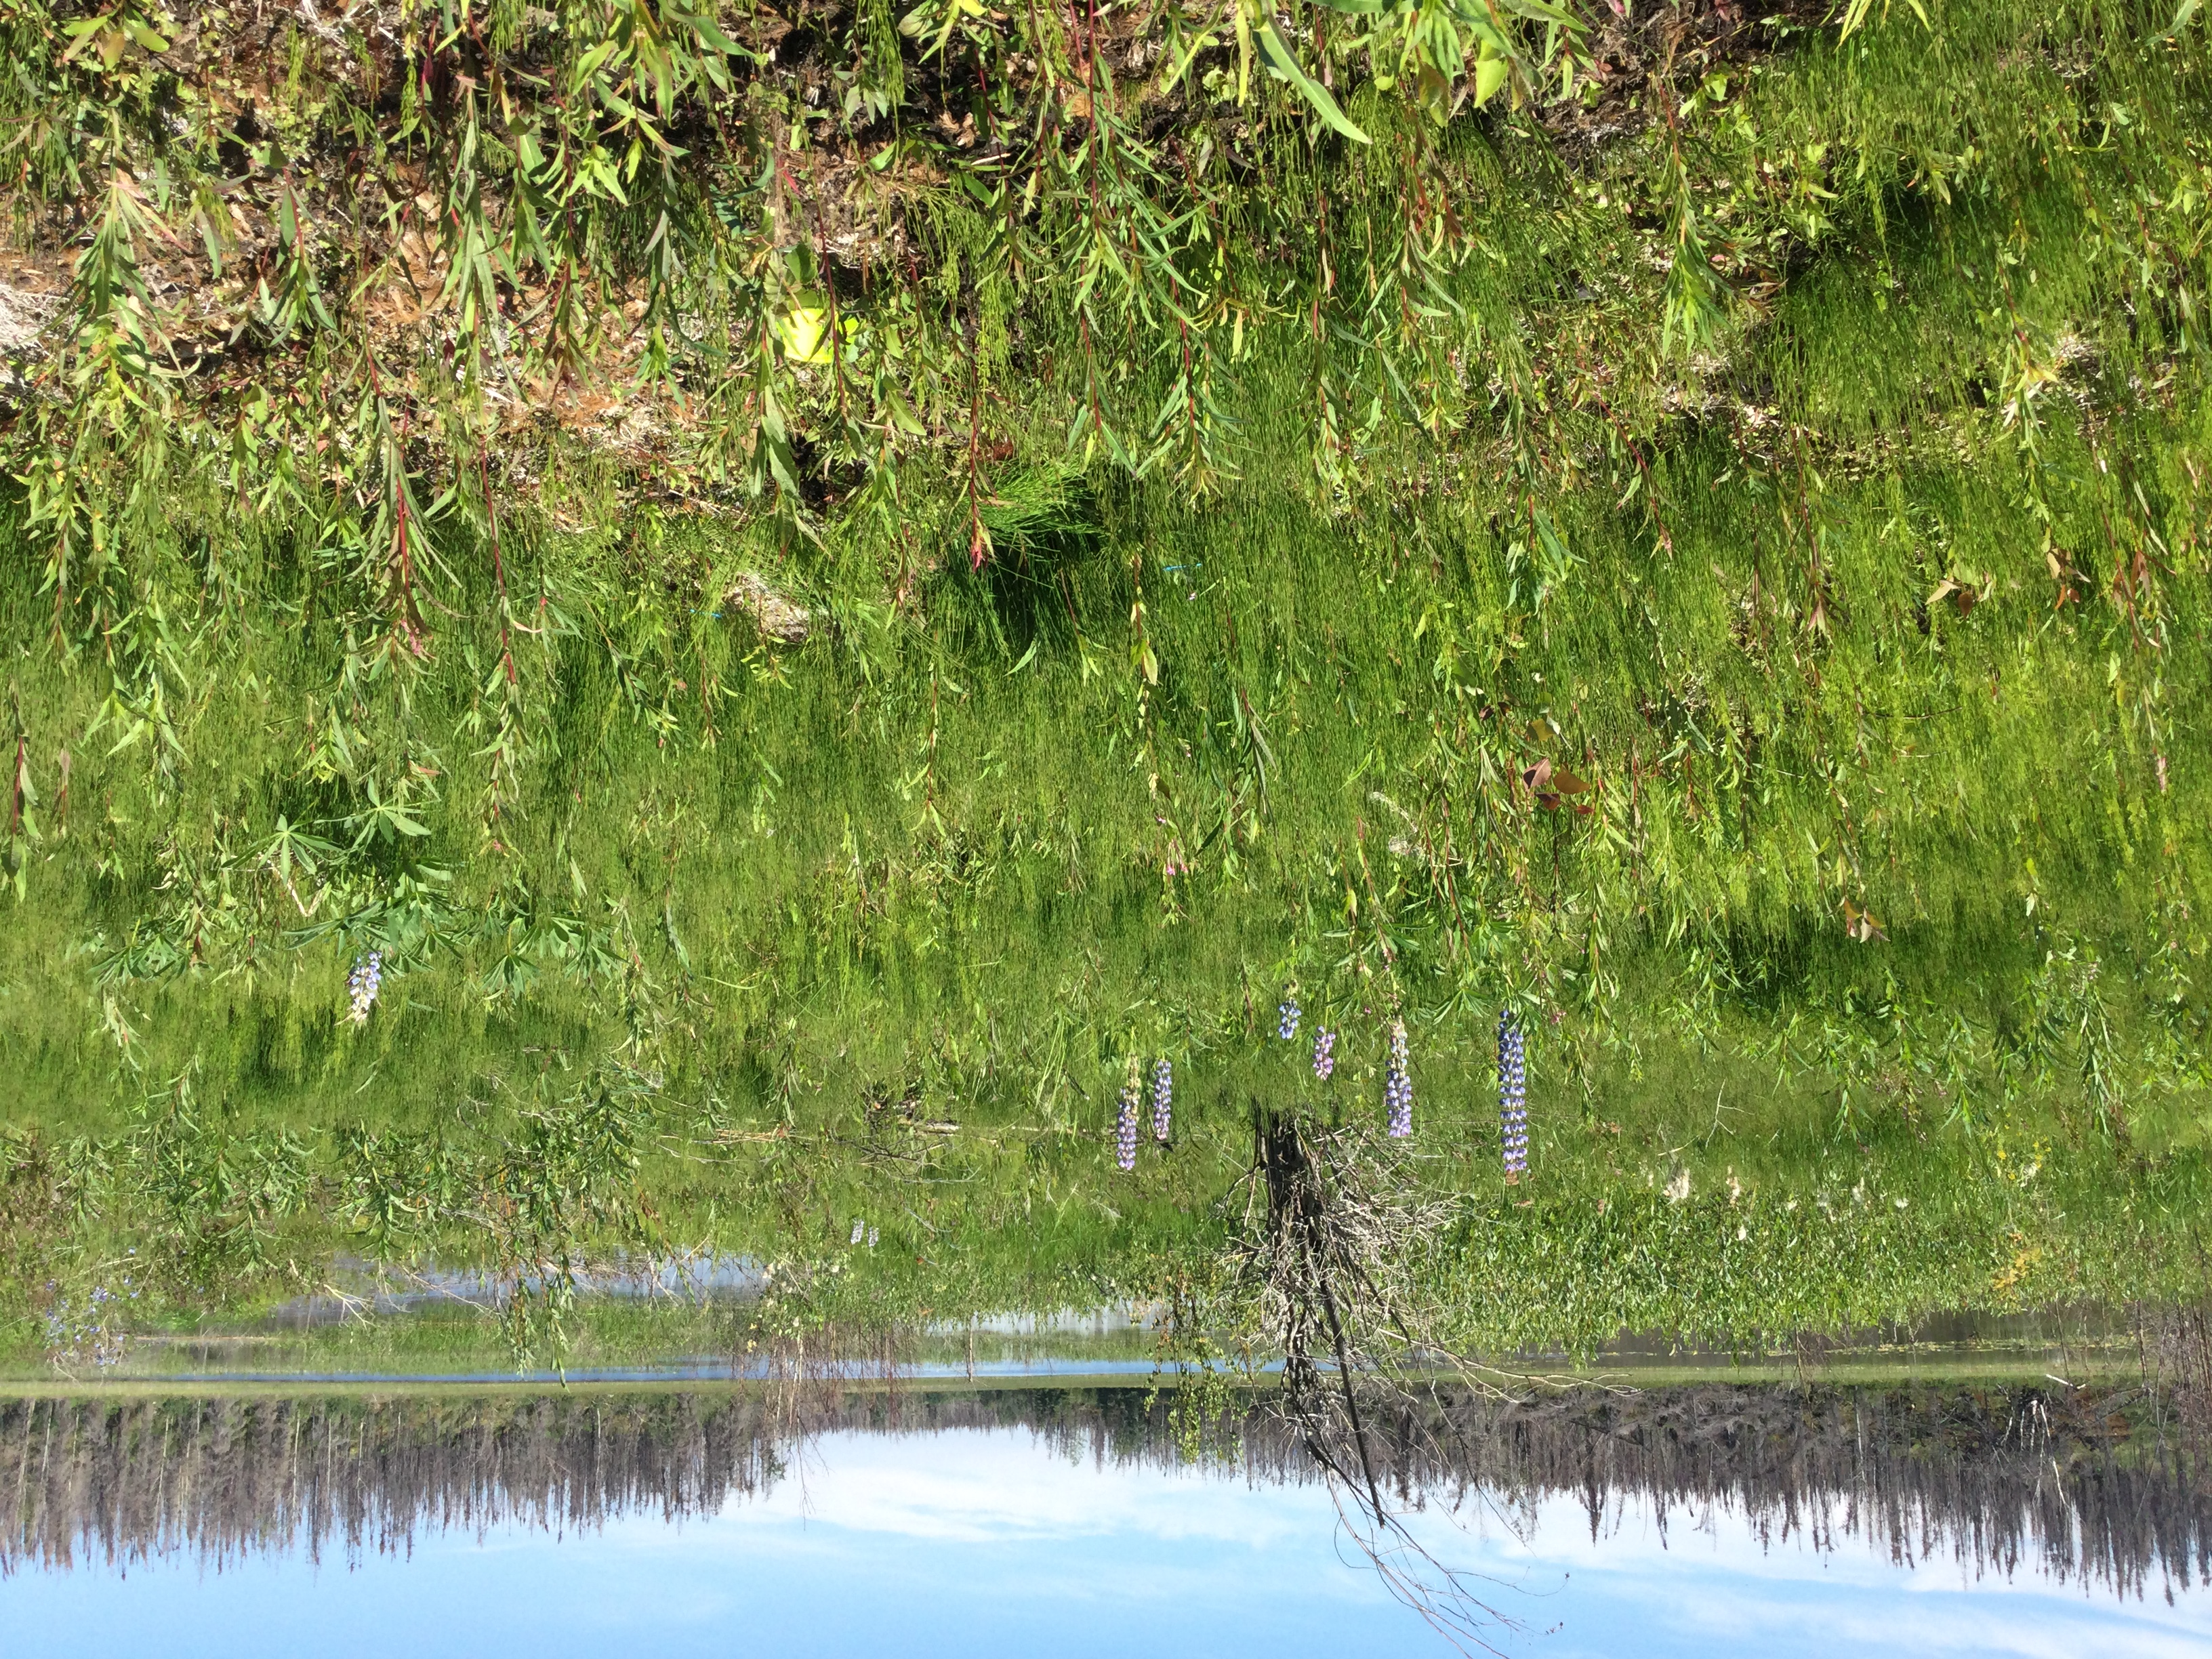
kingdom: Animalia
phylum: Arthropoda
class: Insecta
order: Diptera
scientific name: Diptera
